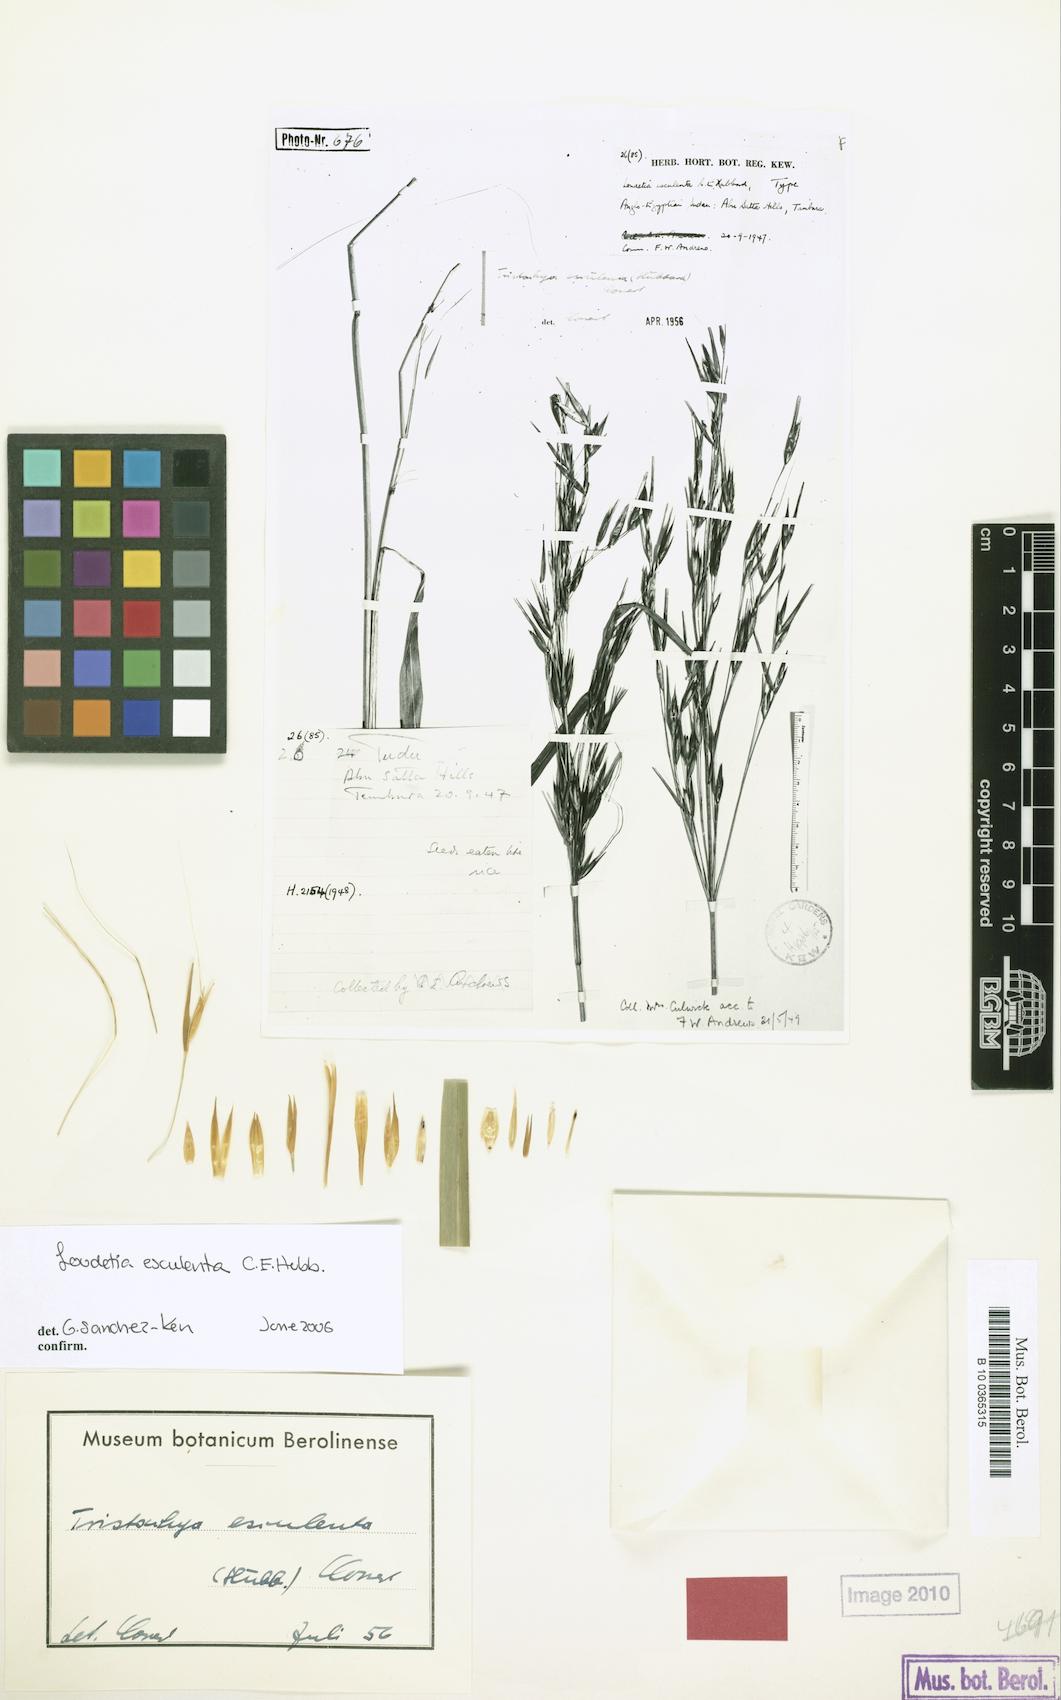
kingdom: Plantae
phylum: Tracheophyta
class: Liliopsida
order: Poales
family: Poaceae
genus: Loudetia
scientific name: Loudetia esculenta
